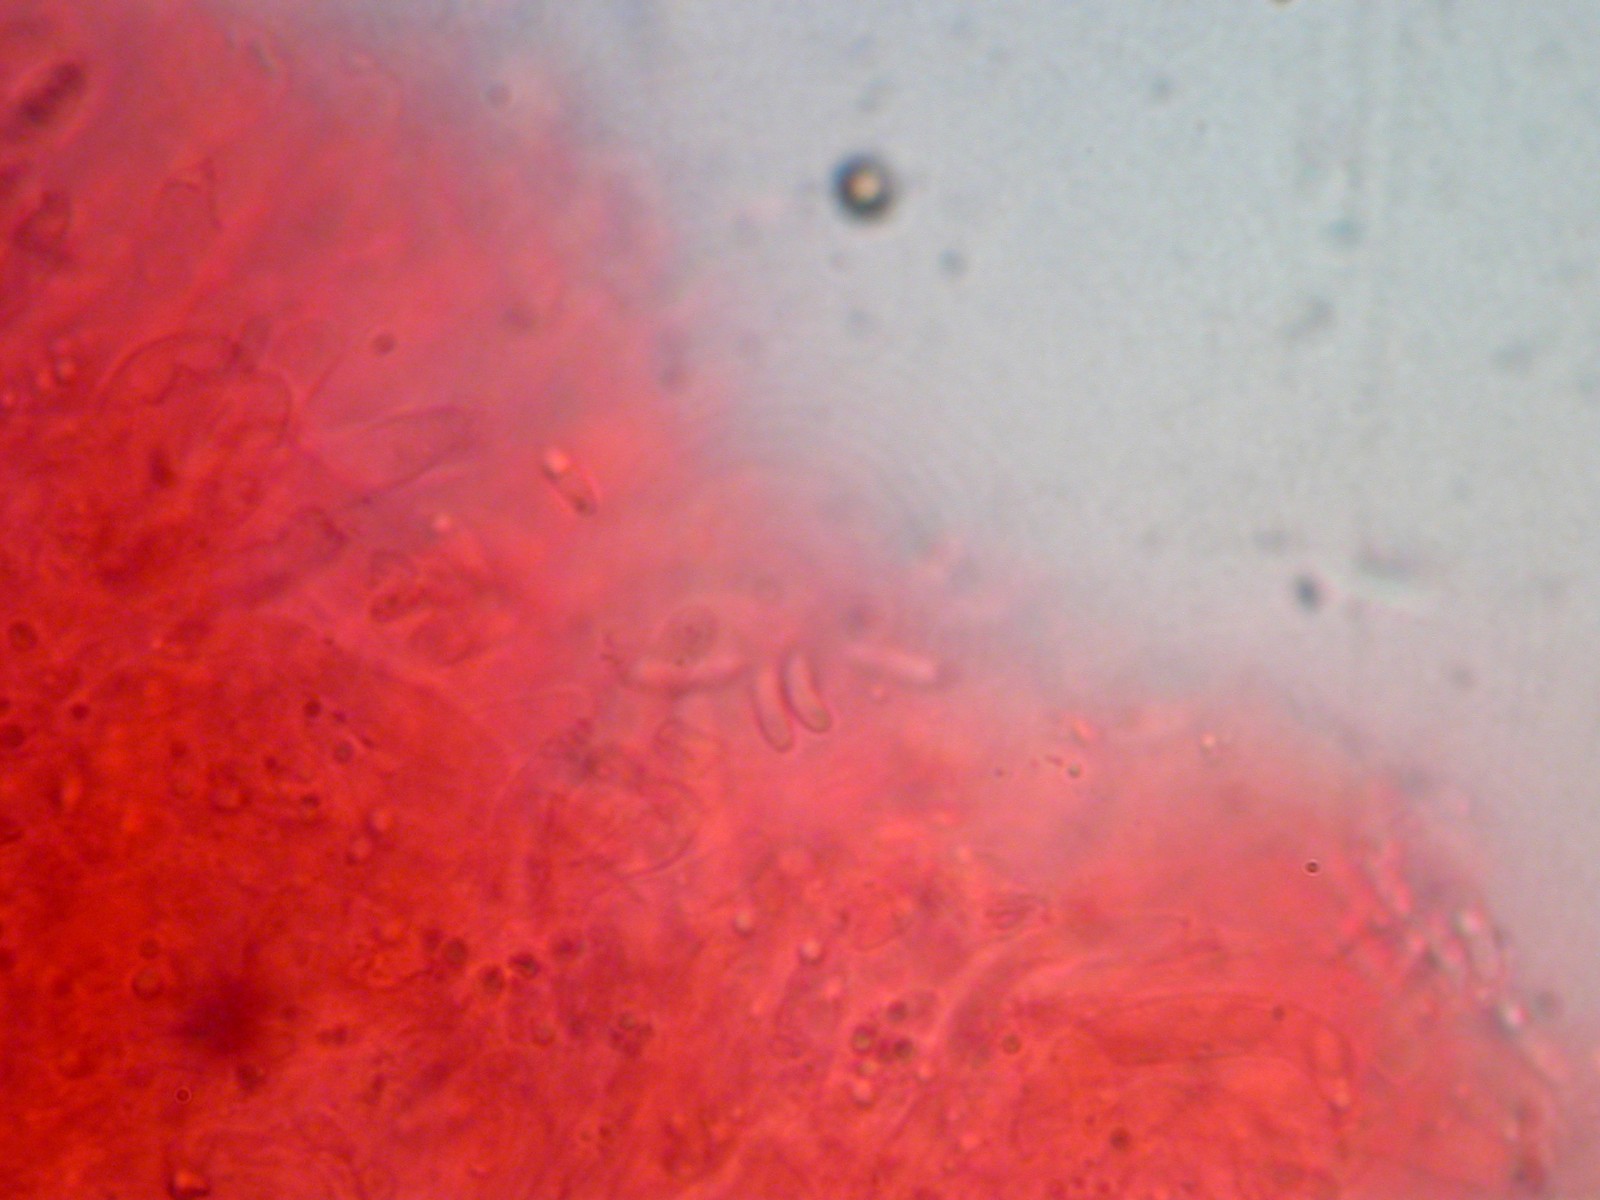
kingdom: Fungi
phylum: Basidiomycota
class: Agaricomycetes
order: Polyporales
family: Dacryobolaceae
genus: Dacryobolus
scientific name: Dacryobolus karstenii
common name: glat vulkanskorpe
